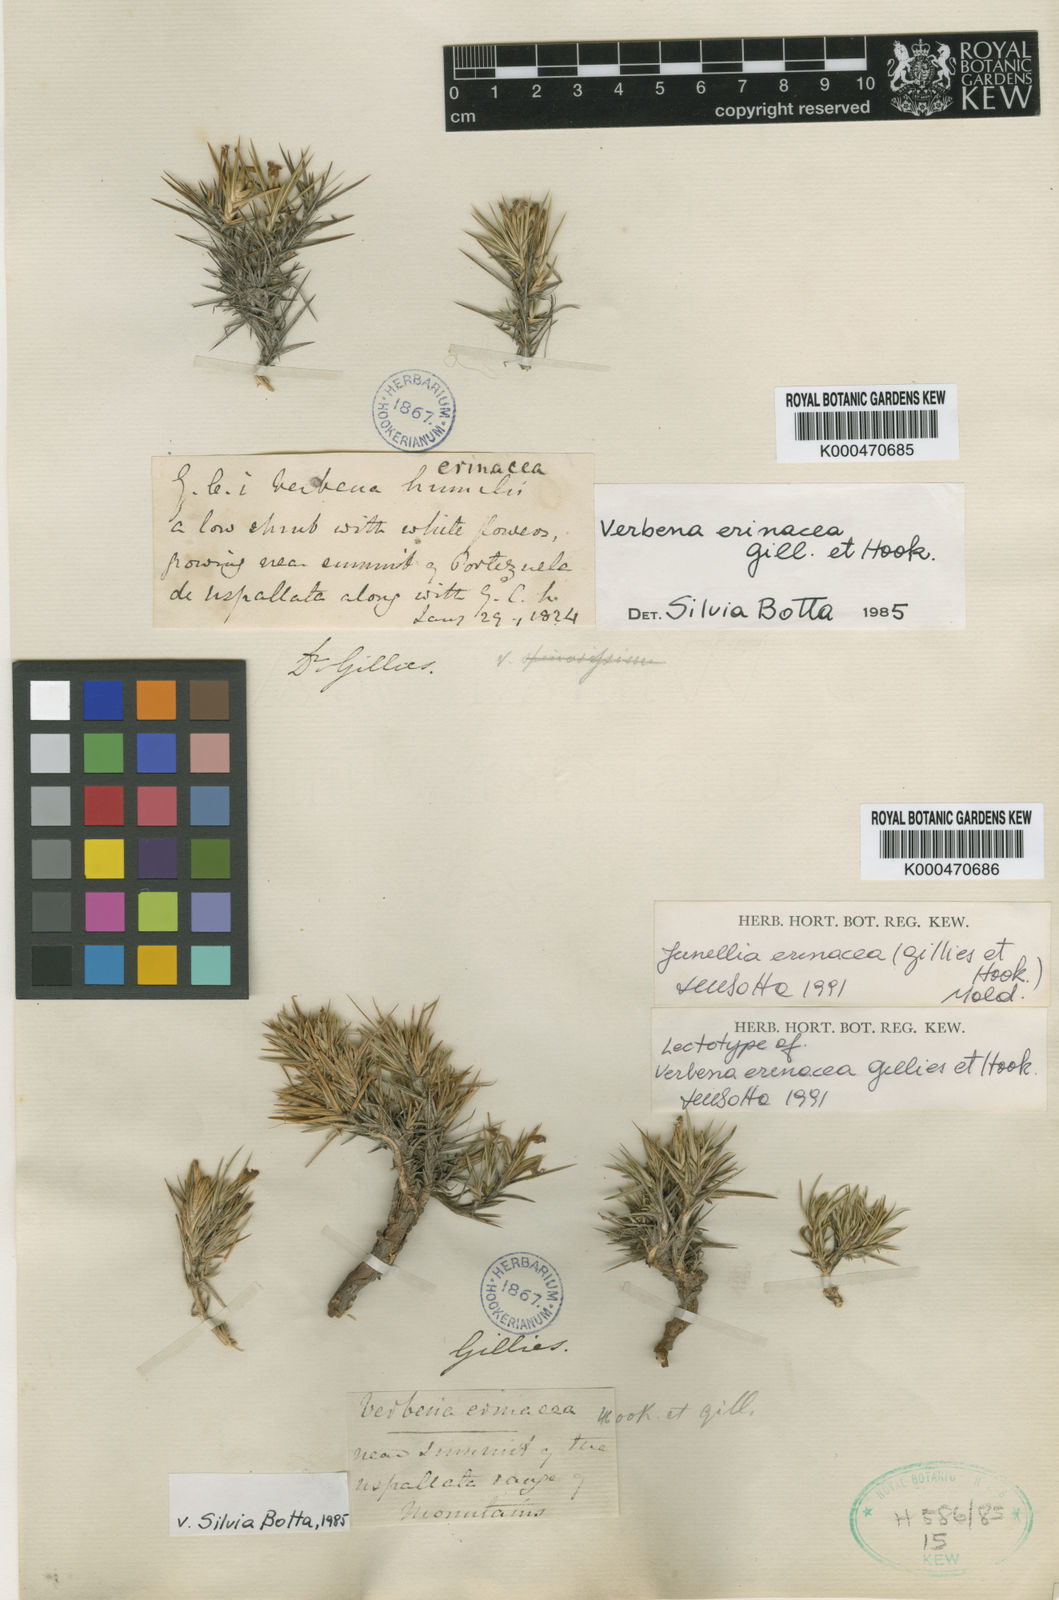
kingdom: Plantae
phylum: Tracheophyta
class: Magnoliopsida
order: Lamiales
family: Verbenaceae
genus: Junellia
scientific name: Junellia erinacea
